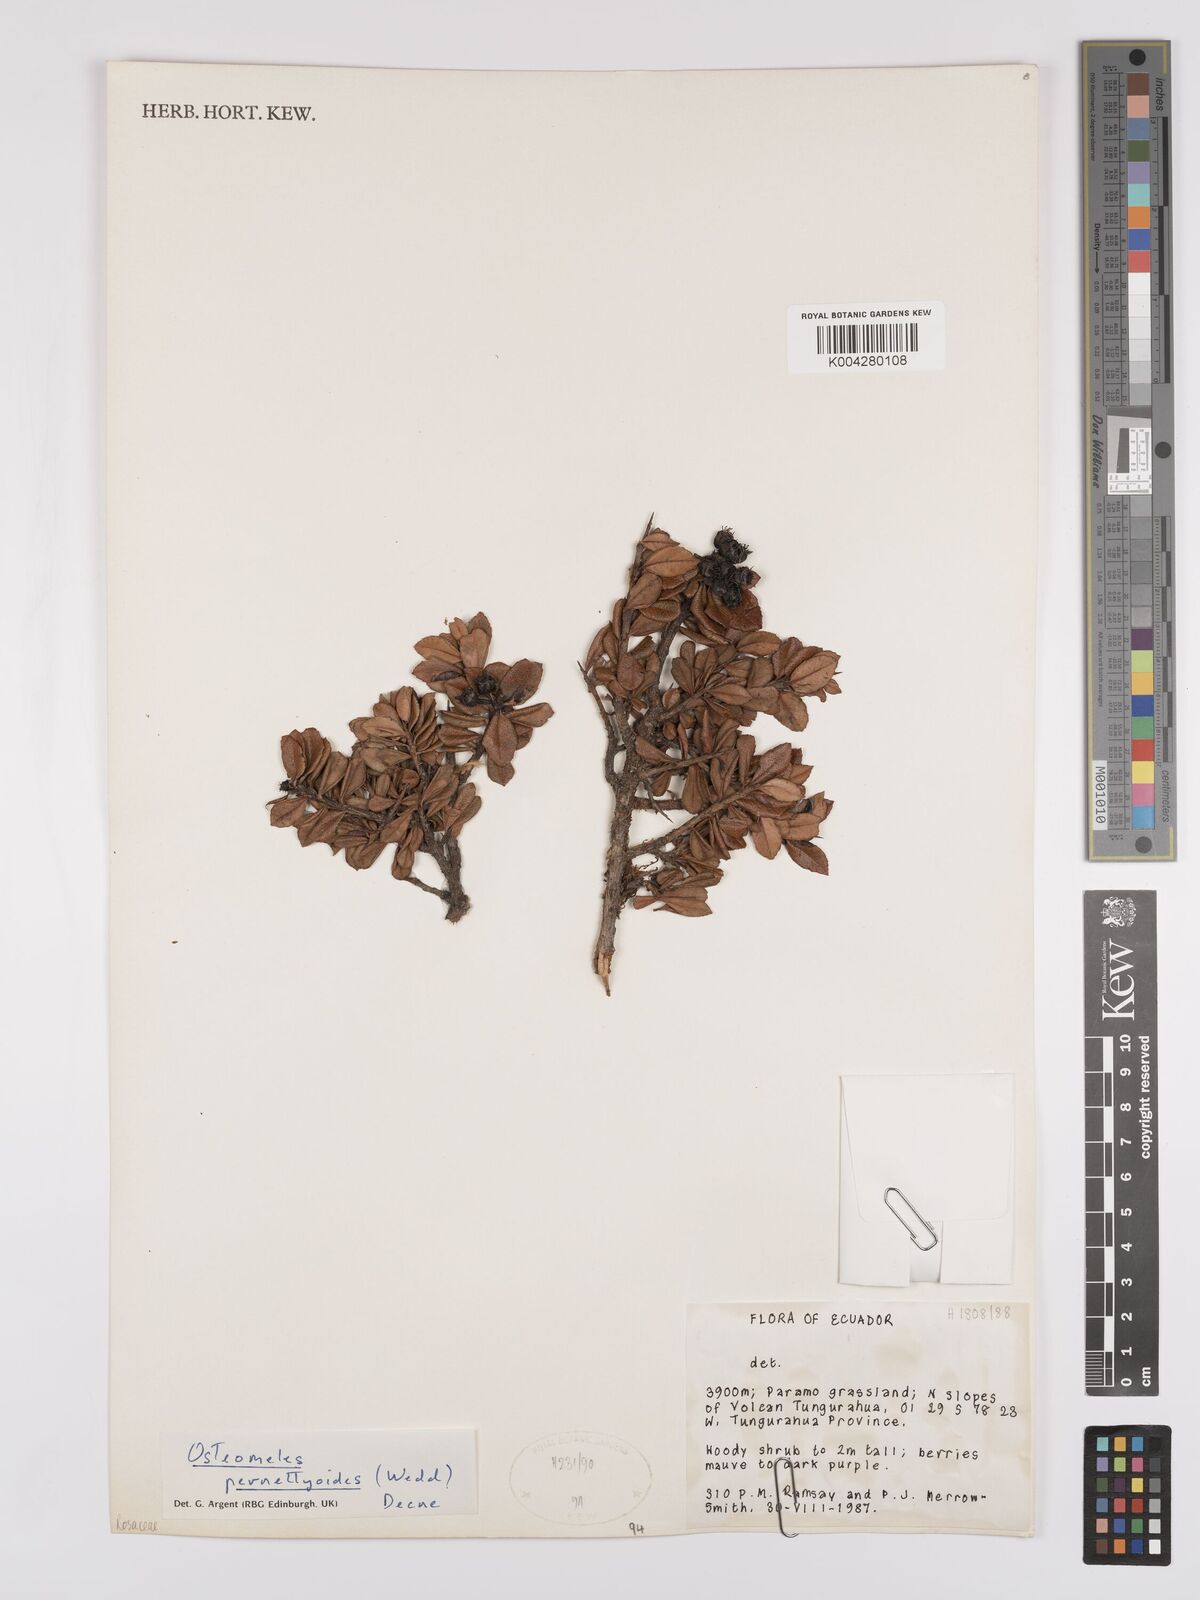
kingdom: Plantae
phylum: Tracheophyta
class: Magnoliopsida
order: Rosales
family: Rosaceae
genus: Hesperomeles
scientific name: Hesperomeles obtusifolia
